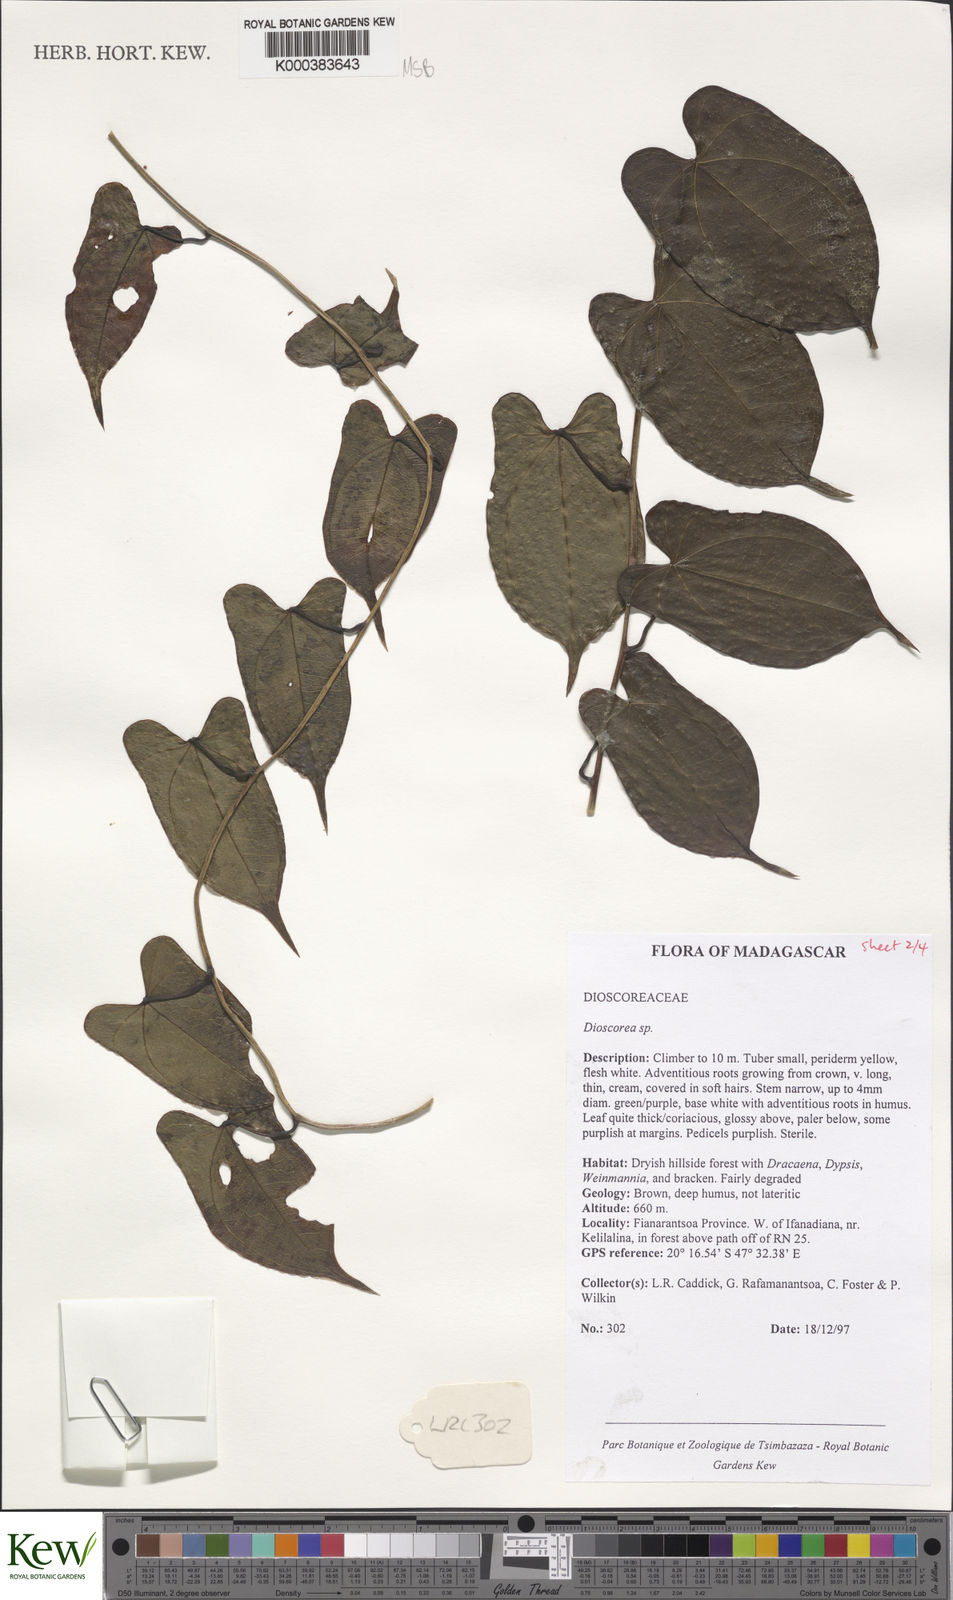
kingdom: Plantae
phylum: Tracheophyta
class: Liliopsida
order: Dioscoreales
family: Dioscoreaceae
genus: Dioscorea
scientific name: Dioscorea arcuatinervis
